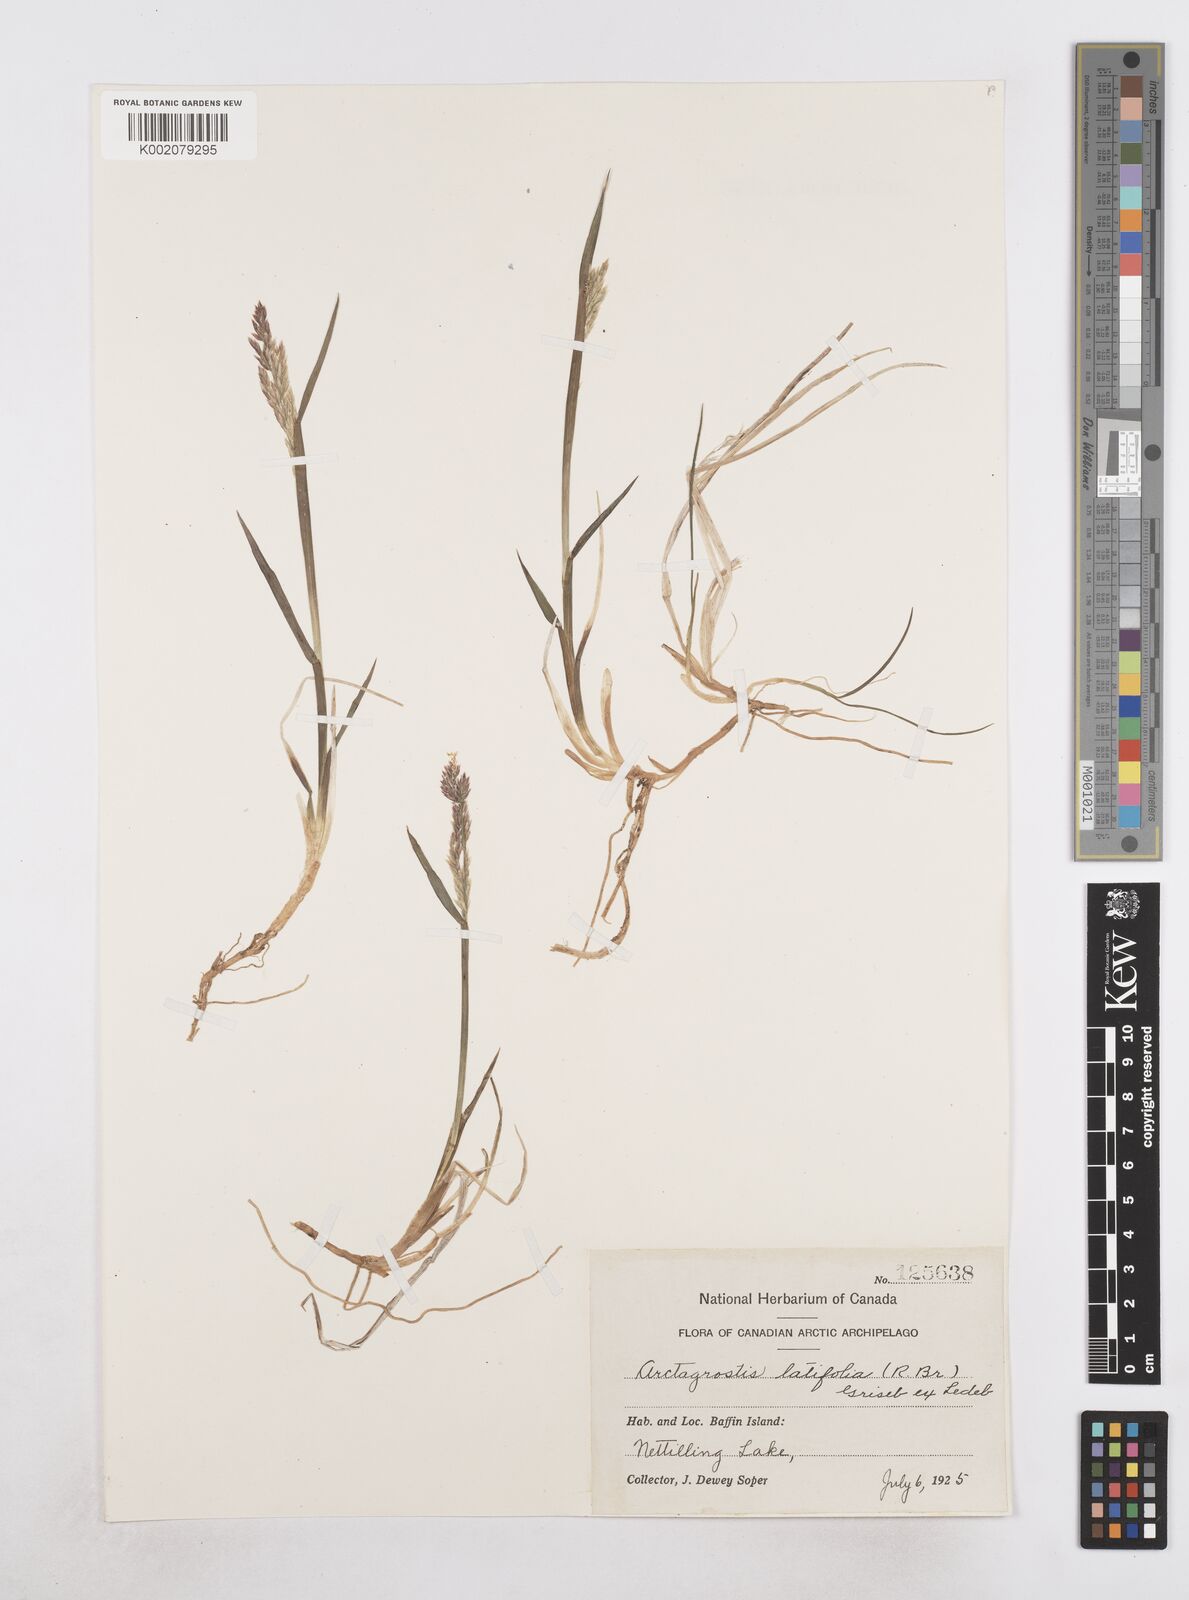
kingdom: Plantae
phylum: Tracheophyta
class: Liliopsida
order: Poales
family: Poaceae
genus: Arctagrostis
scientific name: Arctagrostis latifolia
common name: Arctic grass
